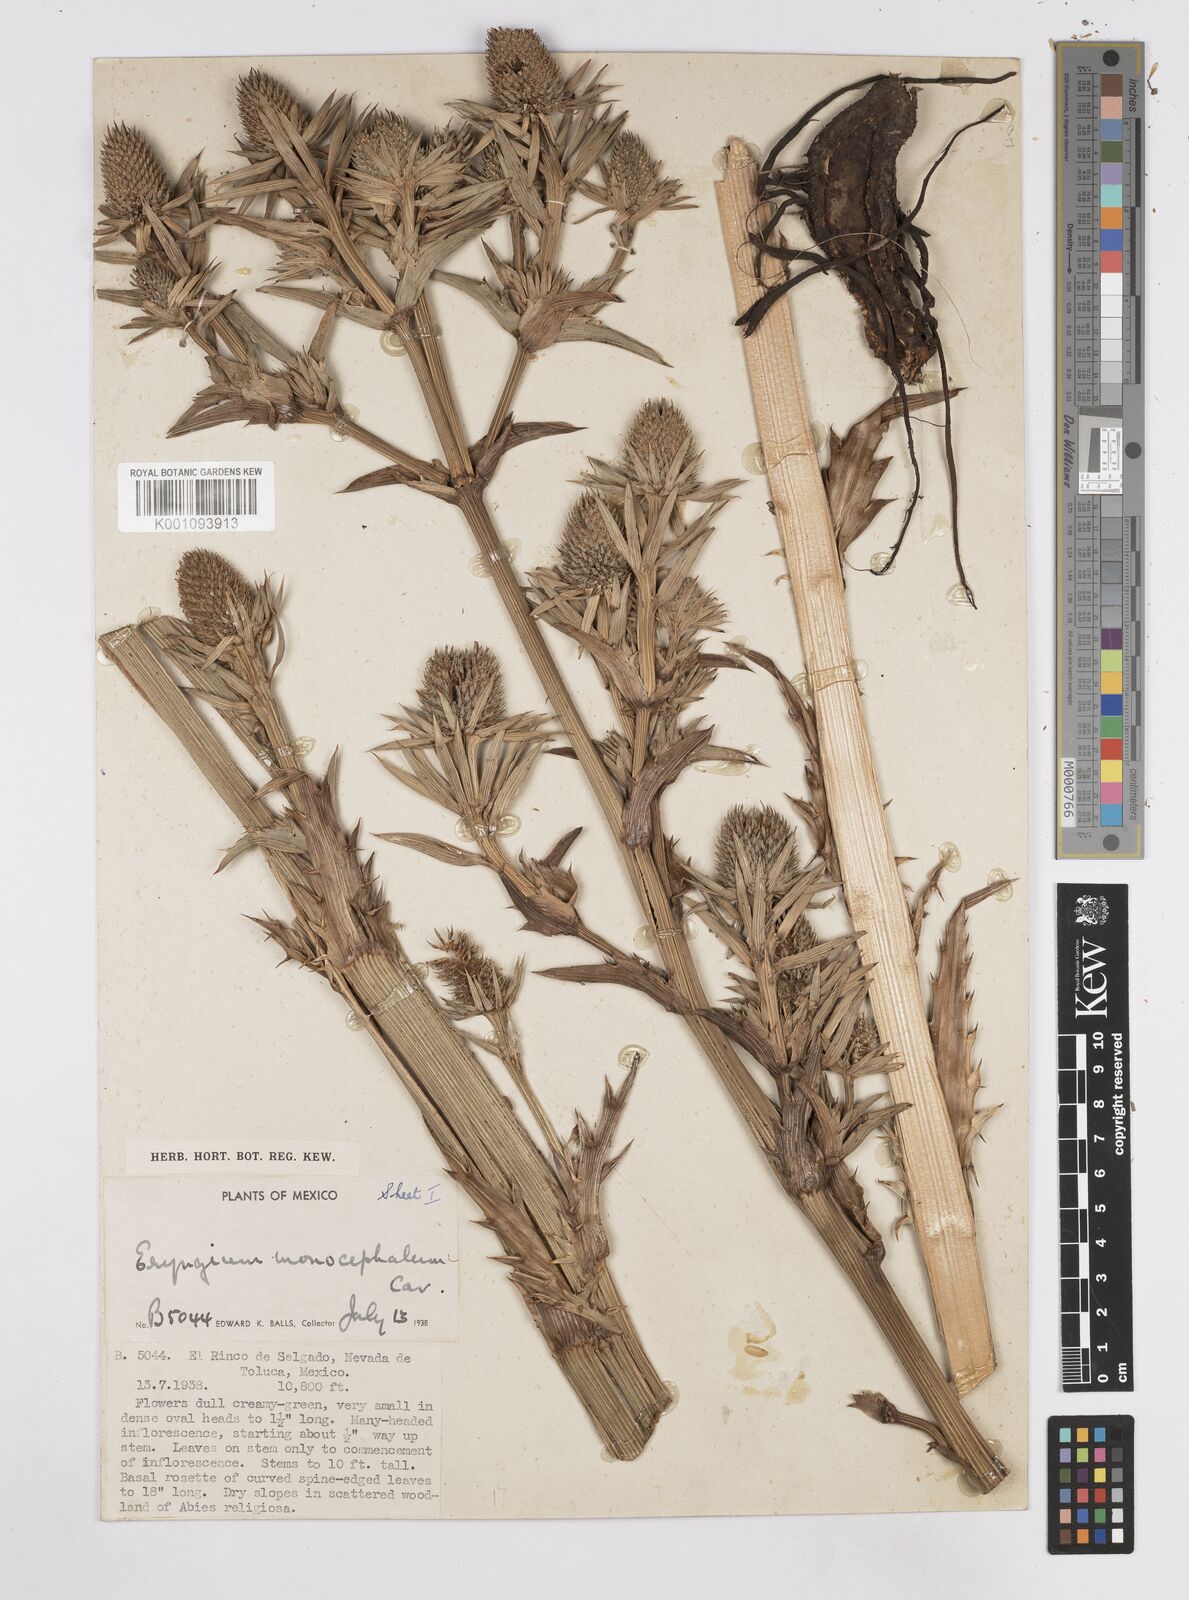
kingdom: Plantae
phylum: Tracheophyta
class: Magnoliopsida
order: Apiales
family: Apiaceae
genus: Eryngium
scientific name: Eryngium monocephalum
